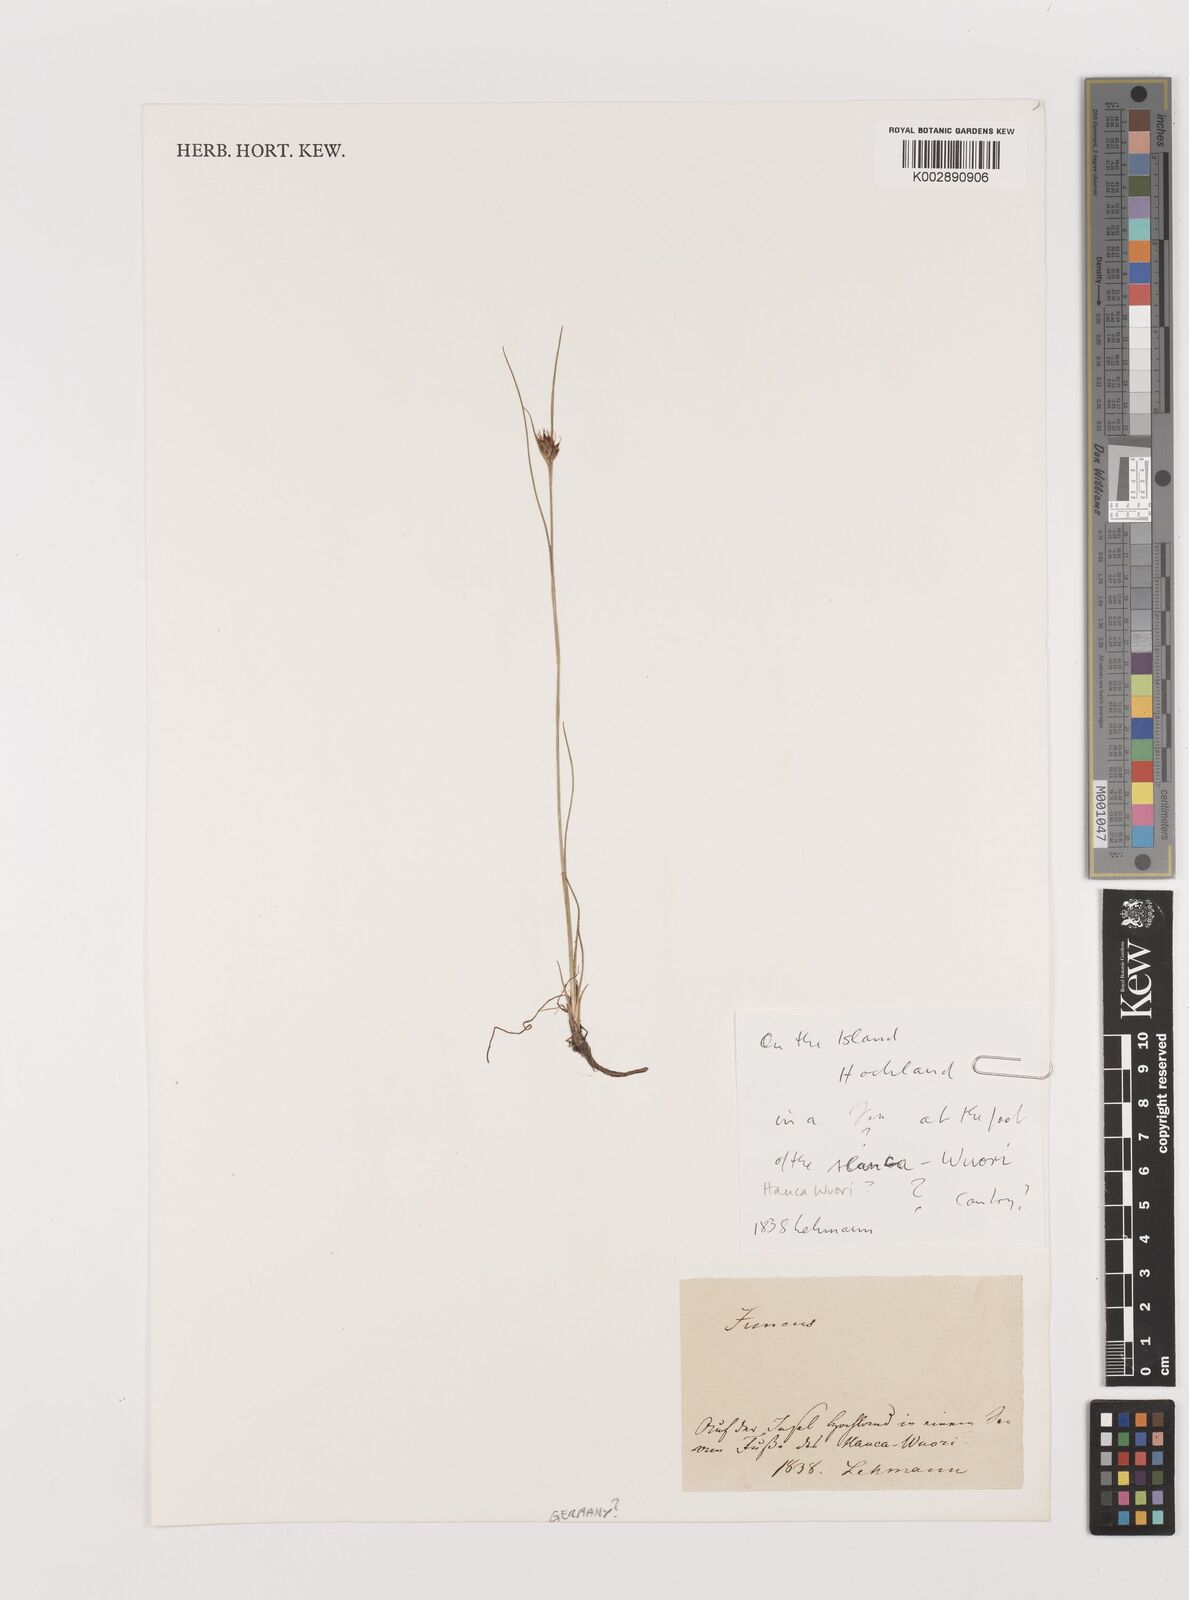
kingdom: Plantae
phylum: Tracheophyta
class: Liliopsida
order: Poales
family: Juncaceae
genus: Juncus
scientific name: Juncus
